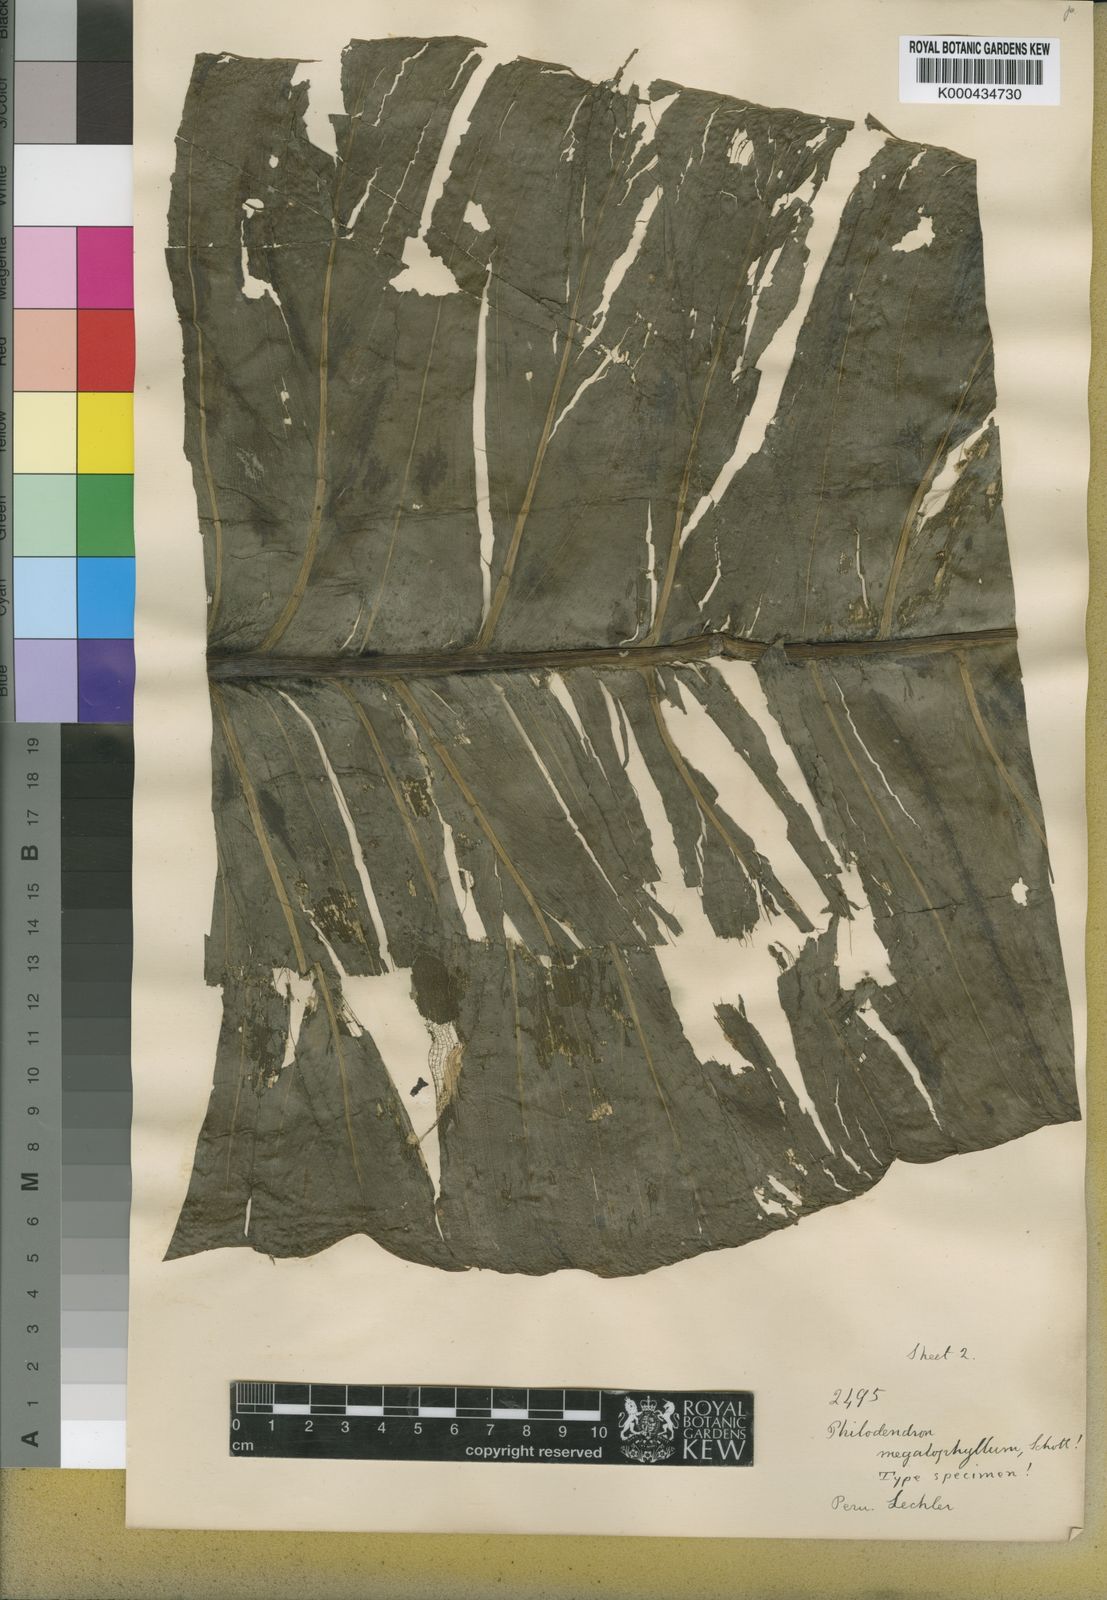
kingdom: Plantae
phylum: Tracheophyta
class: Liliopsida
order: Alismatales
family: Araceae
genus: Philodendron
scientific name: Philodendron deflexum
